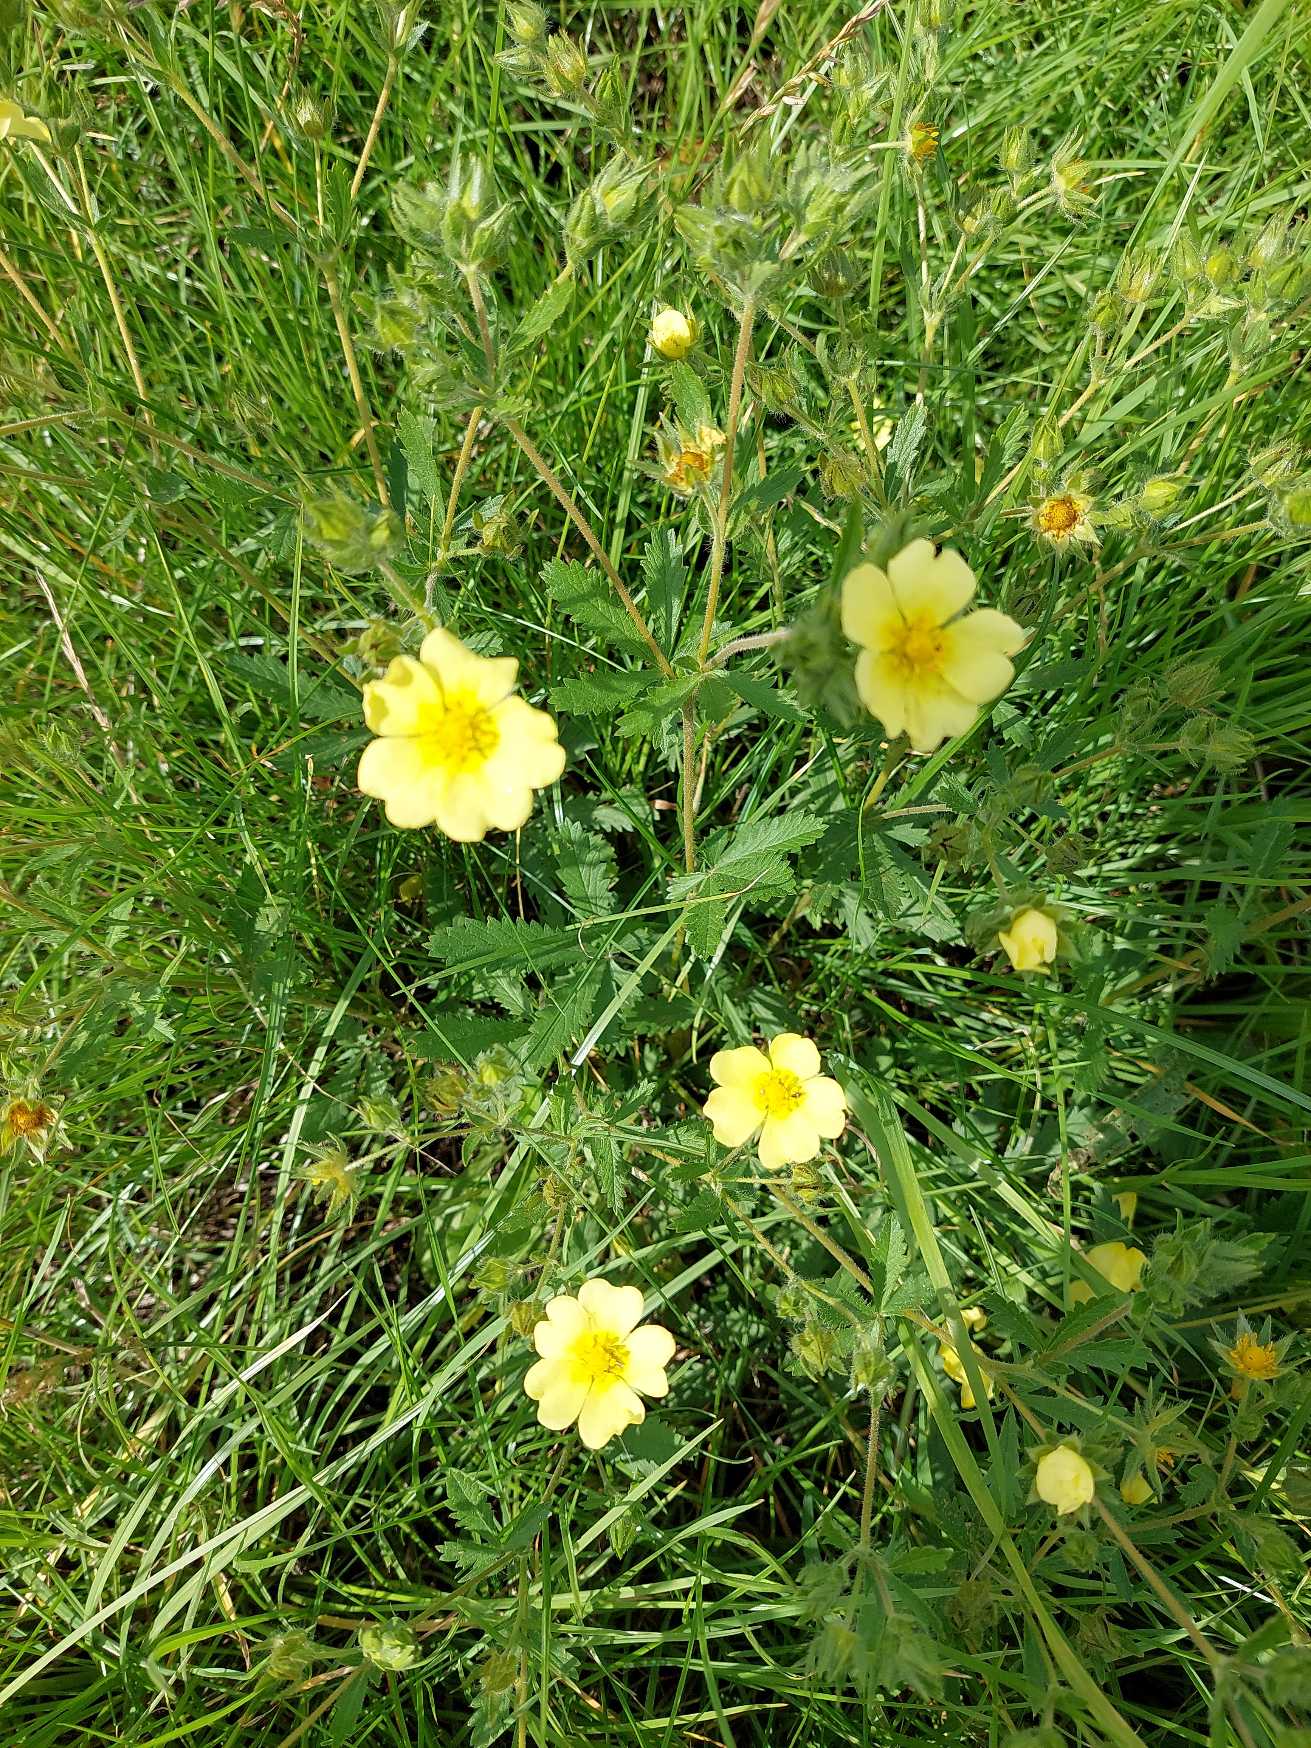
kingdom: Plantae
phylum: Tracheophyta
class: Magnoliopsida
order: Rosales
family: Rosaceae
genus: Potentilla
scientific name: Potentilla recta
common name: Rank potentil
